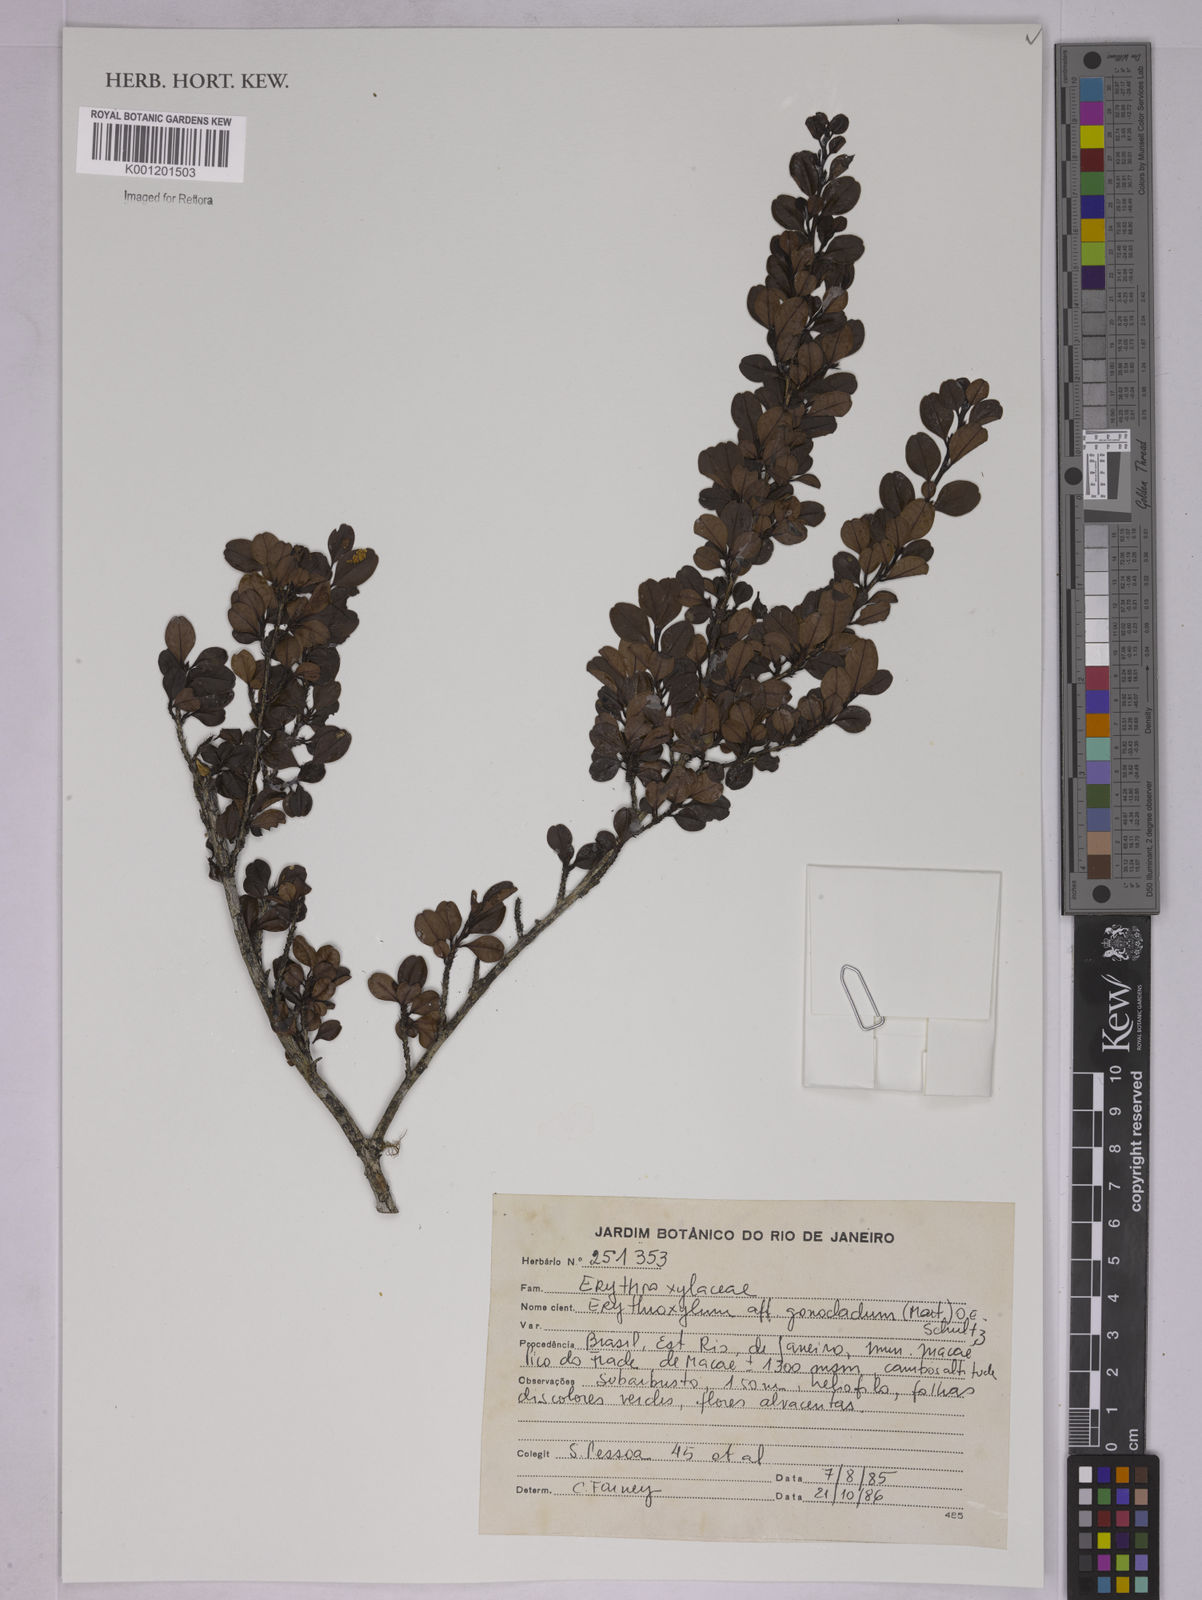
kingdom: Plantae
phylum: Tracheophyta
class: Magnoliopsida
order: Malpighiales
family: Erythroxylaceae
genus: Erythroxylum
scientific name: Erythroxylum
